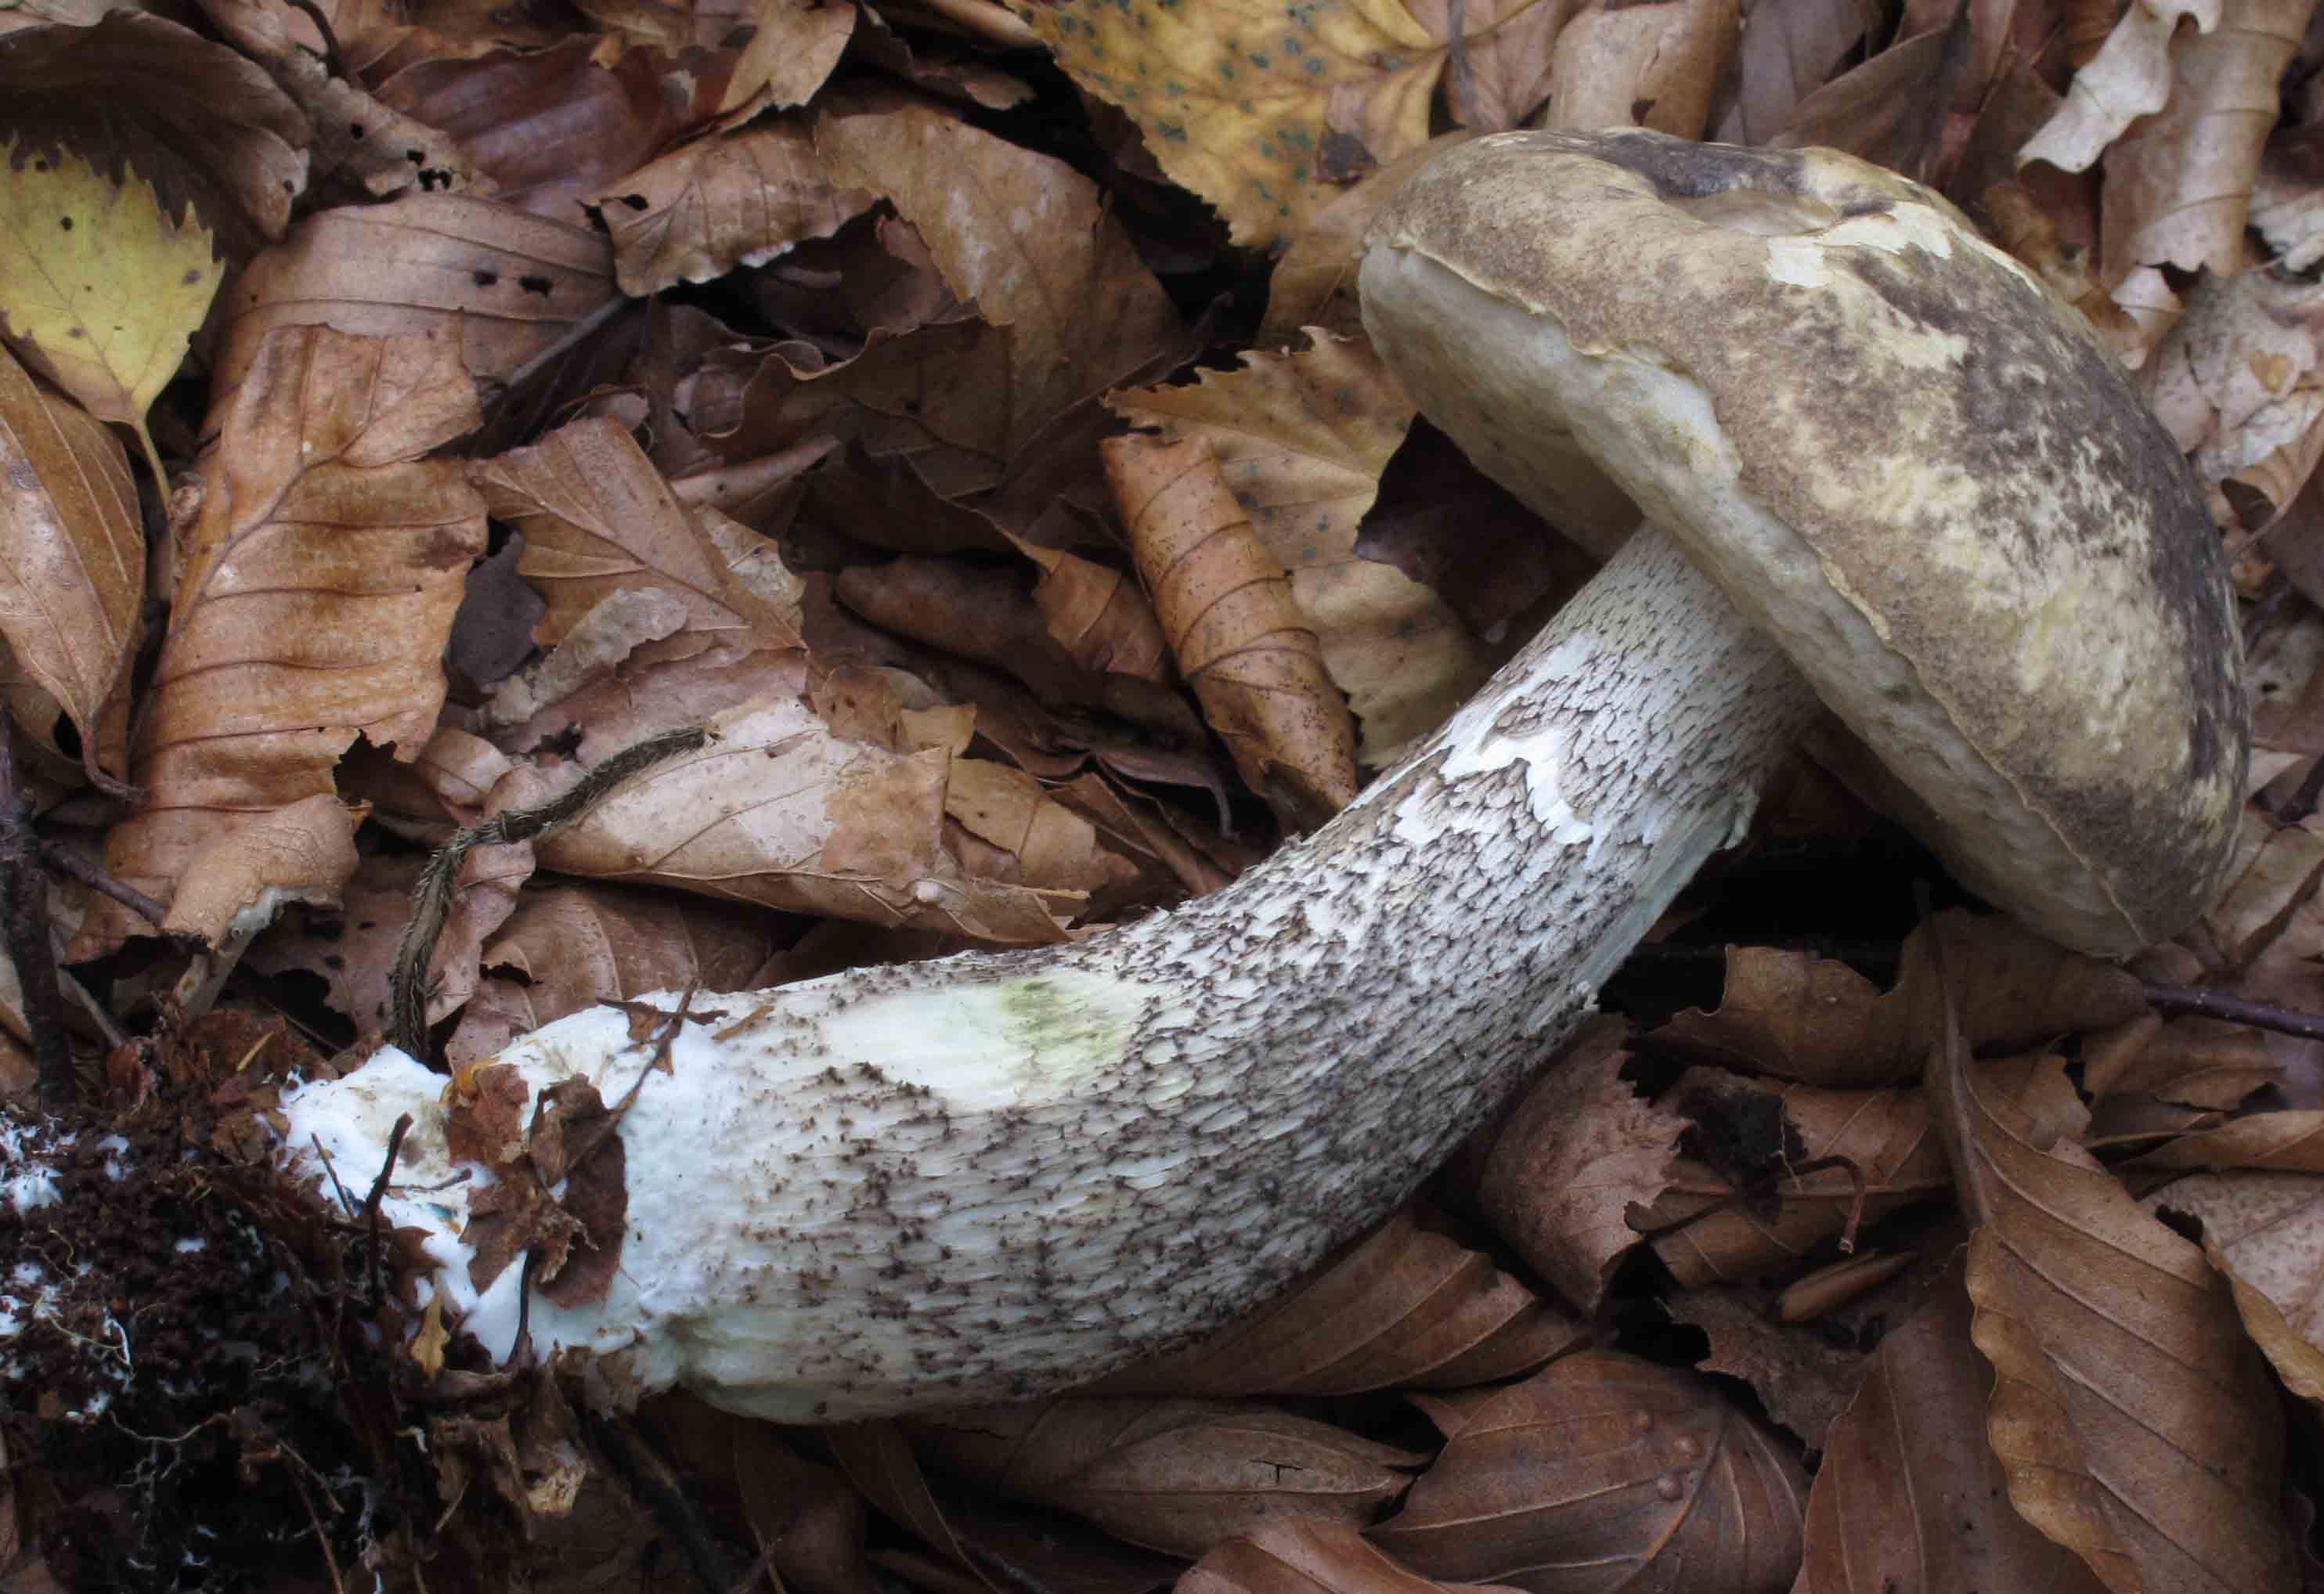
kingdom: Fungi
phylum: Basidiomycota
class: Agaricomycetes
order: Boletales
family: Boletaceae
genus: Leccinum
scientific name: Leccinum variicolor
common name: flammet skælrørhat
